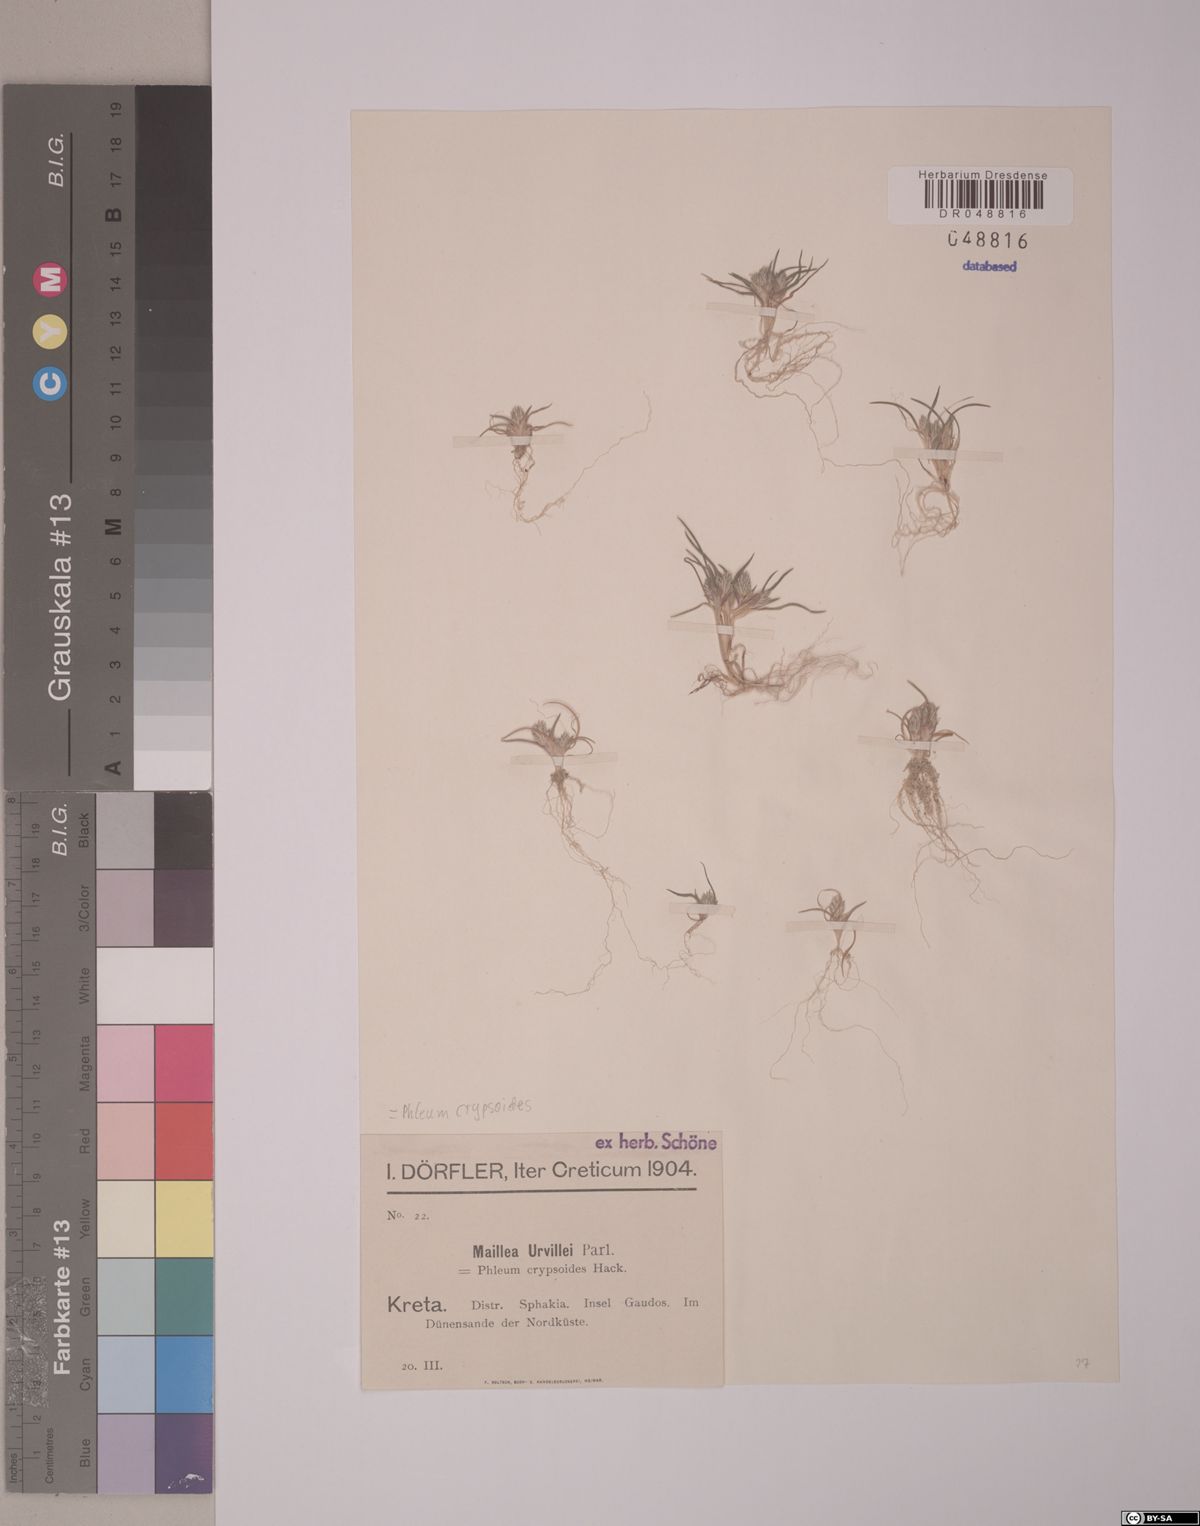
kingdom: Plantae
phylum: Tracheophyta
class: Liliopsida
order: Poales
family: Poaceae
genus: Phleum
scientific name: Phleum crypsoides
